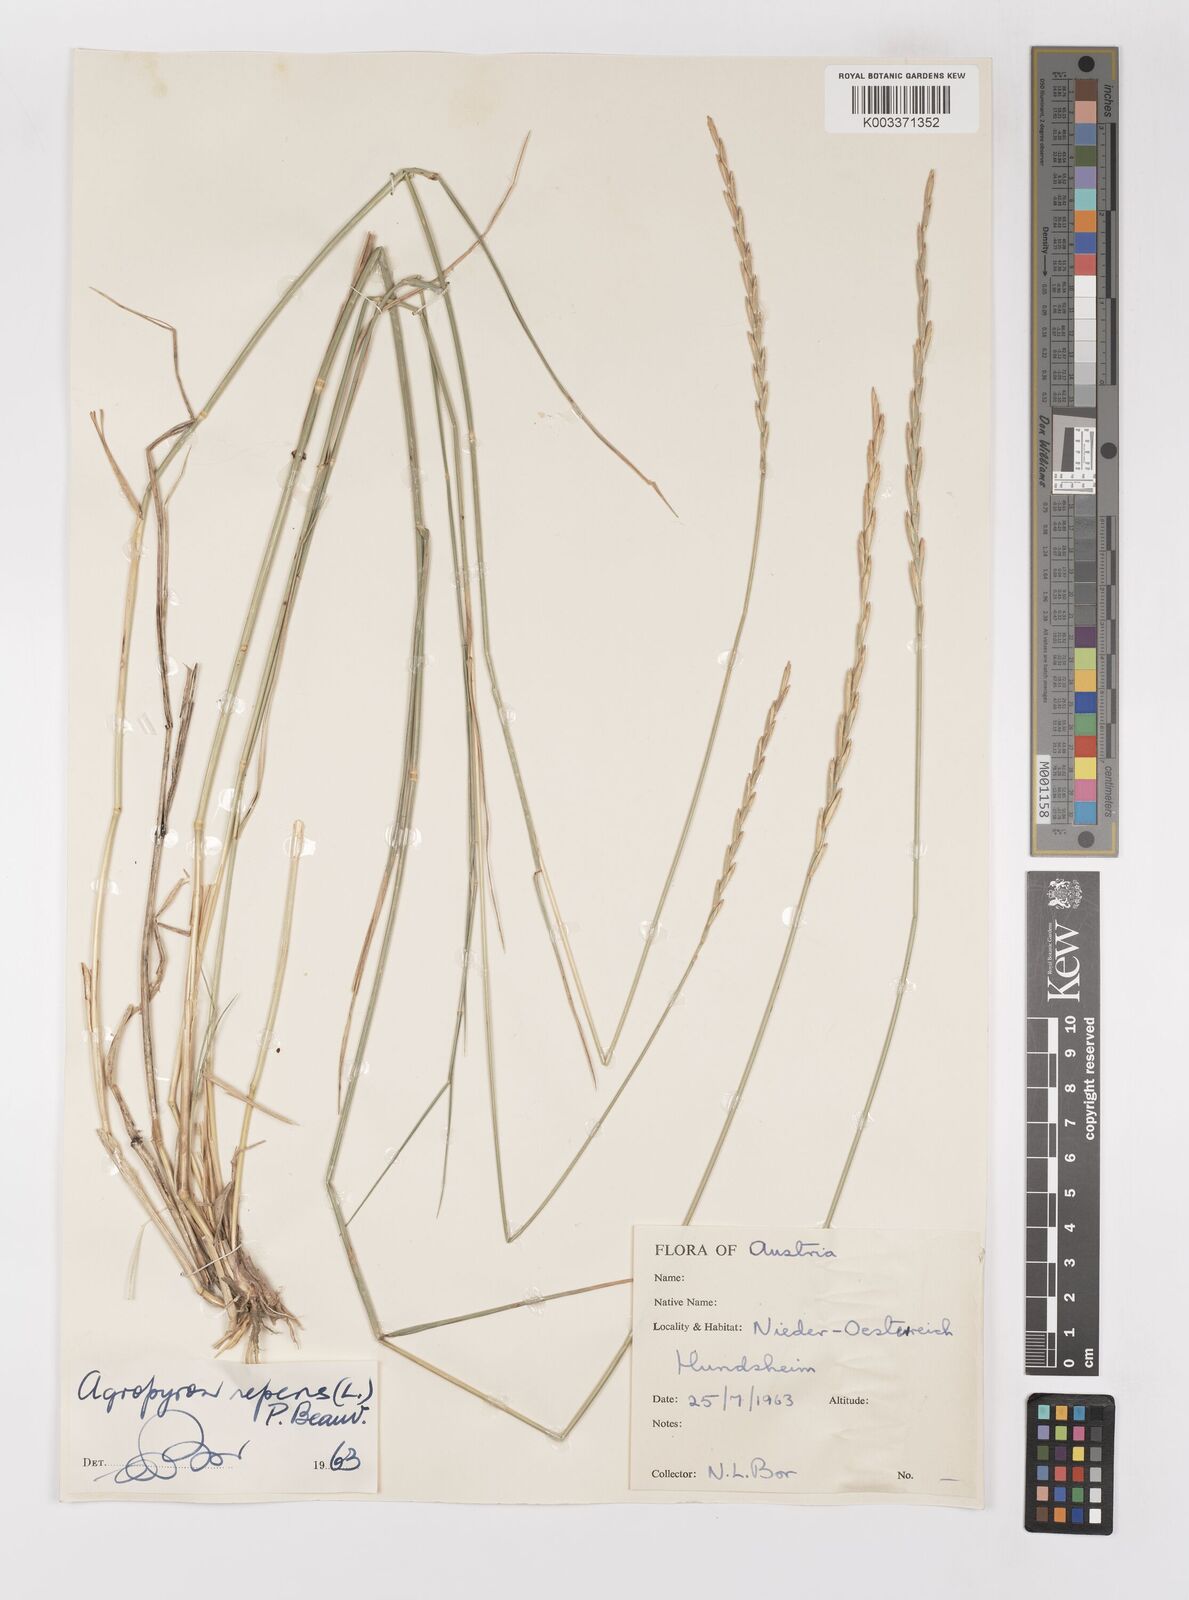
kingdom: Plantae
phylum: Tracheophyta
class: Liliopsida
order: Poales
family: Poaceae
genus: Elymus
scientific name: Elymus repens
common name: Quackgrass
